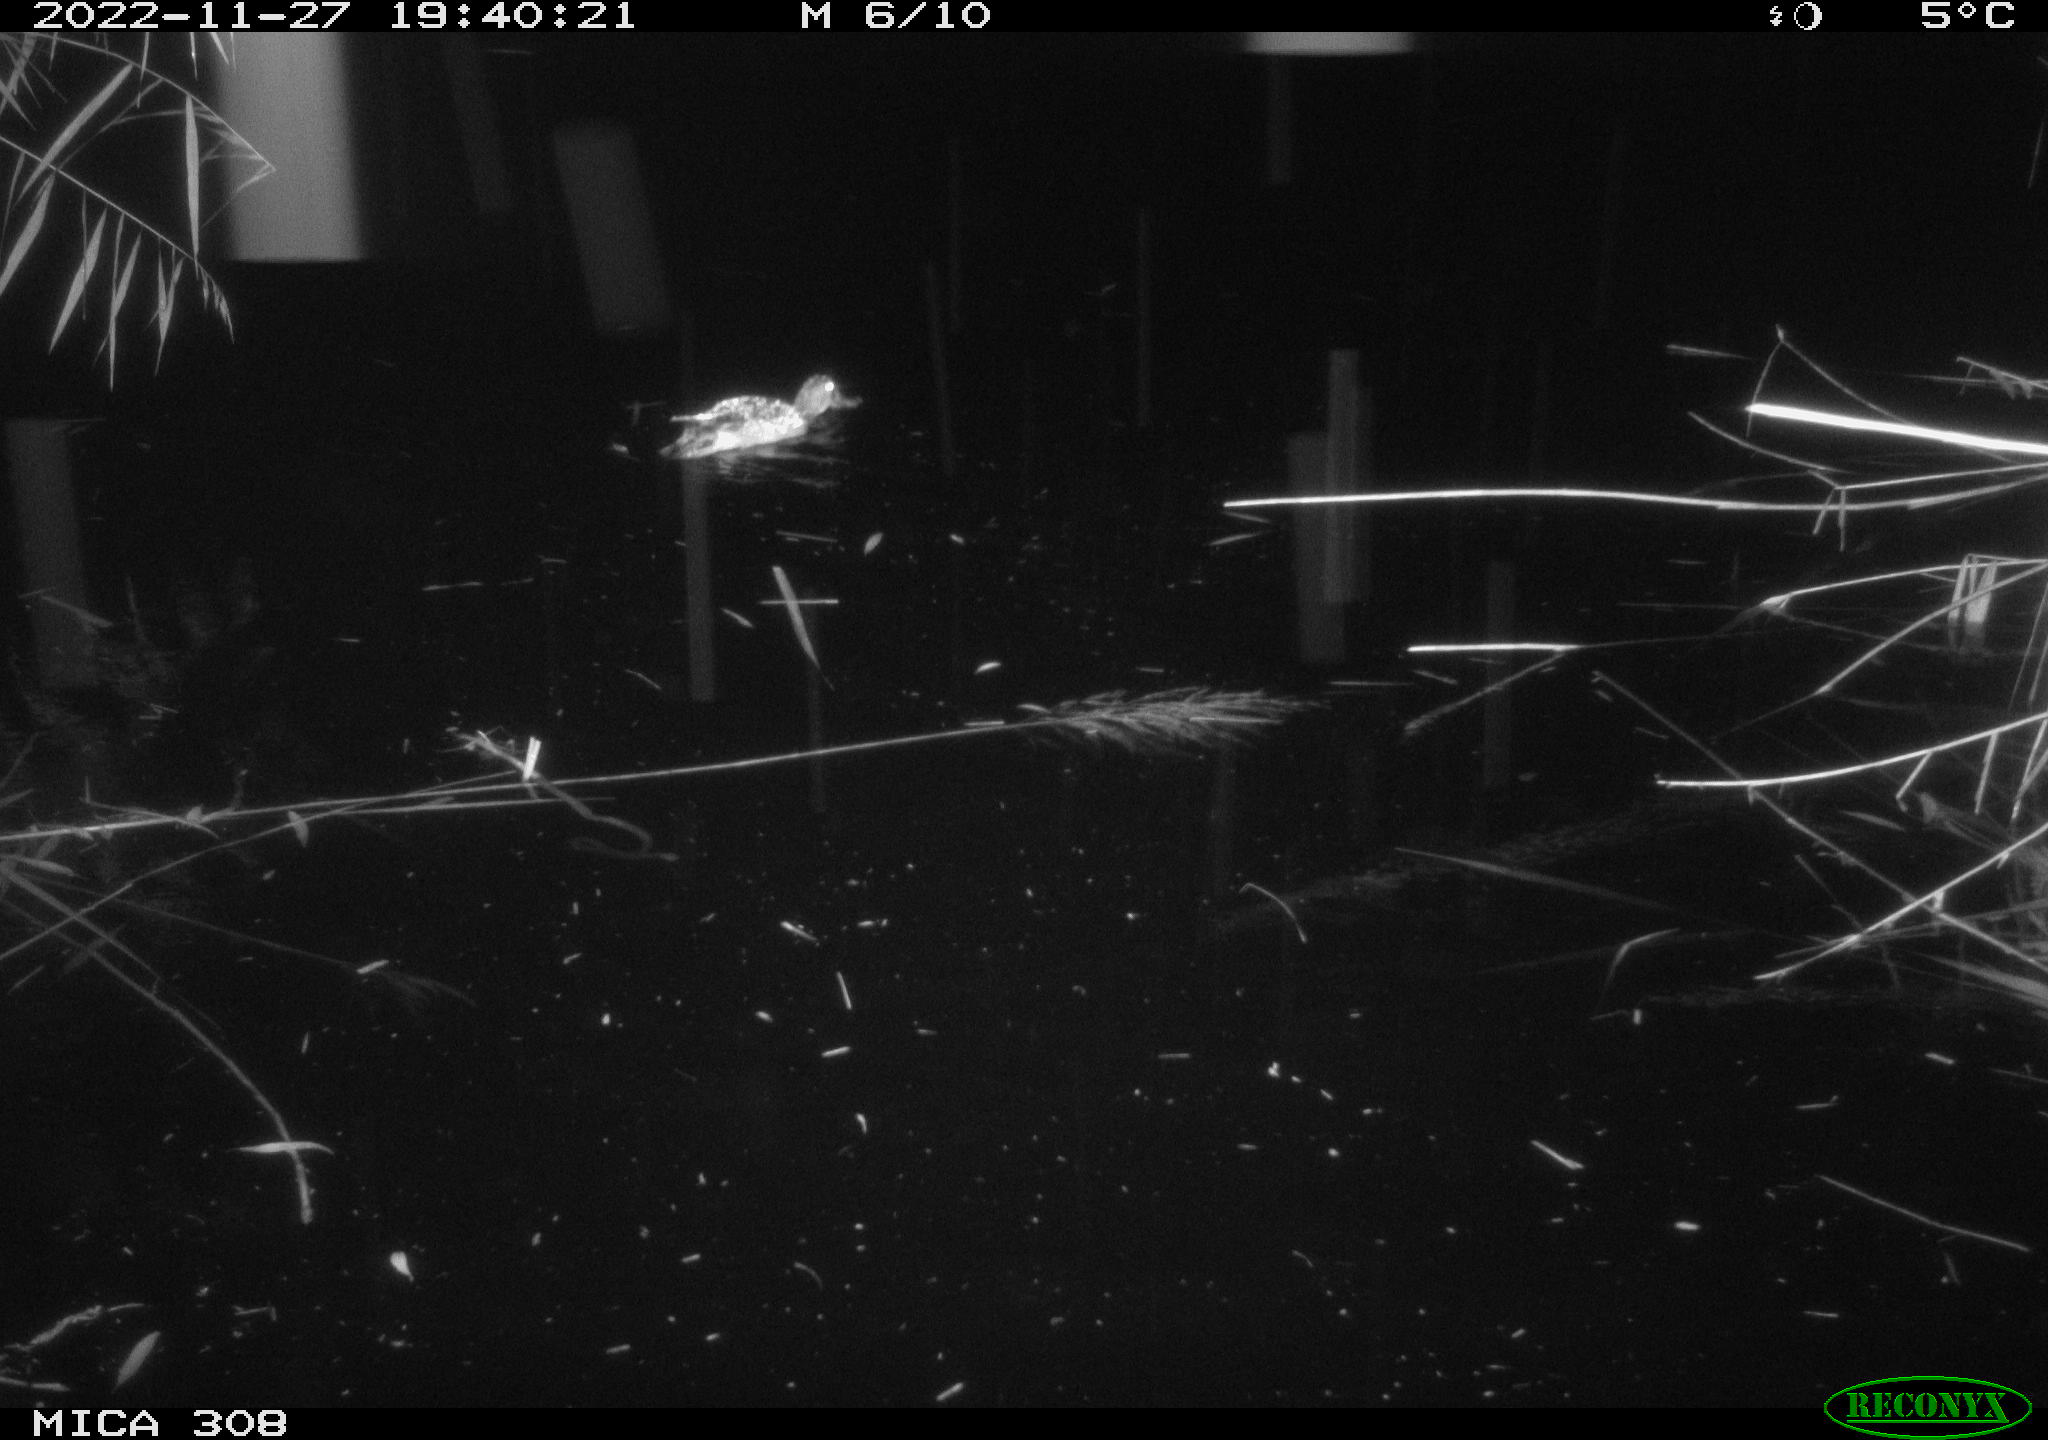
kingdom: Animalia
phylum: Chordata
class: Aves
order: Anseriformes
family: Anatidae
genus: Anas
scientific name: Anas
